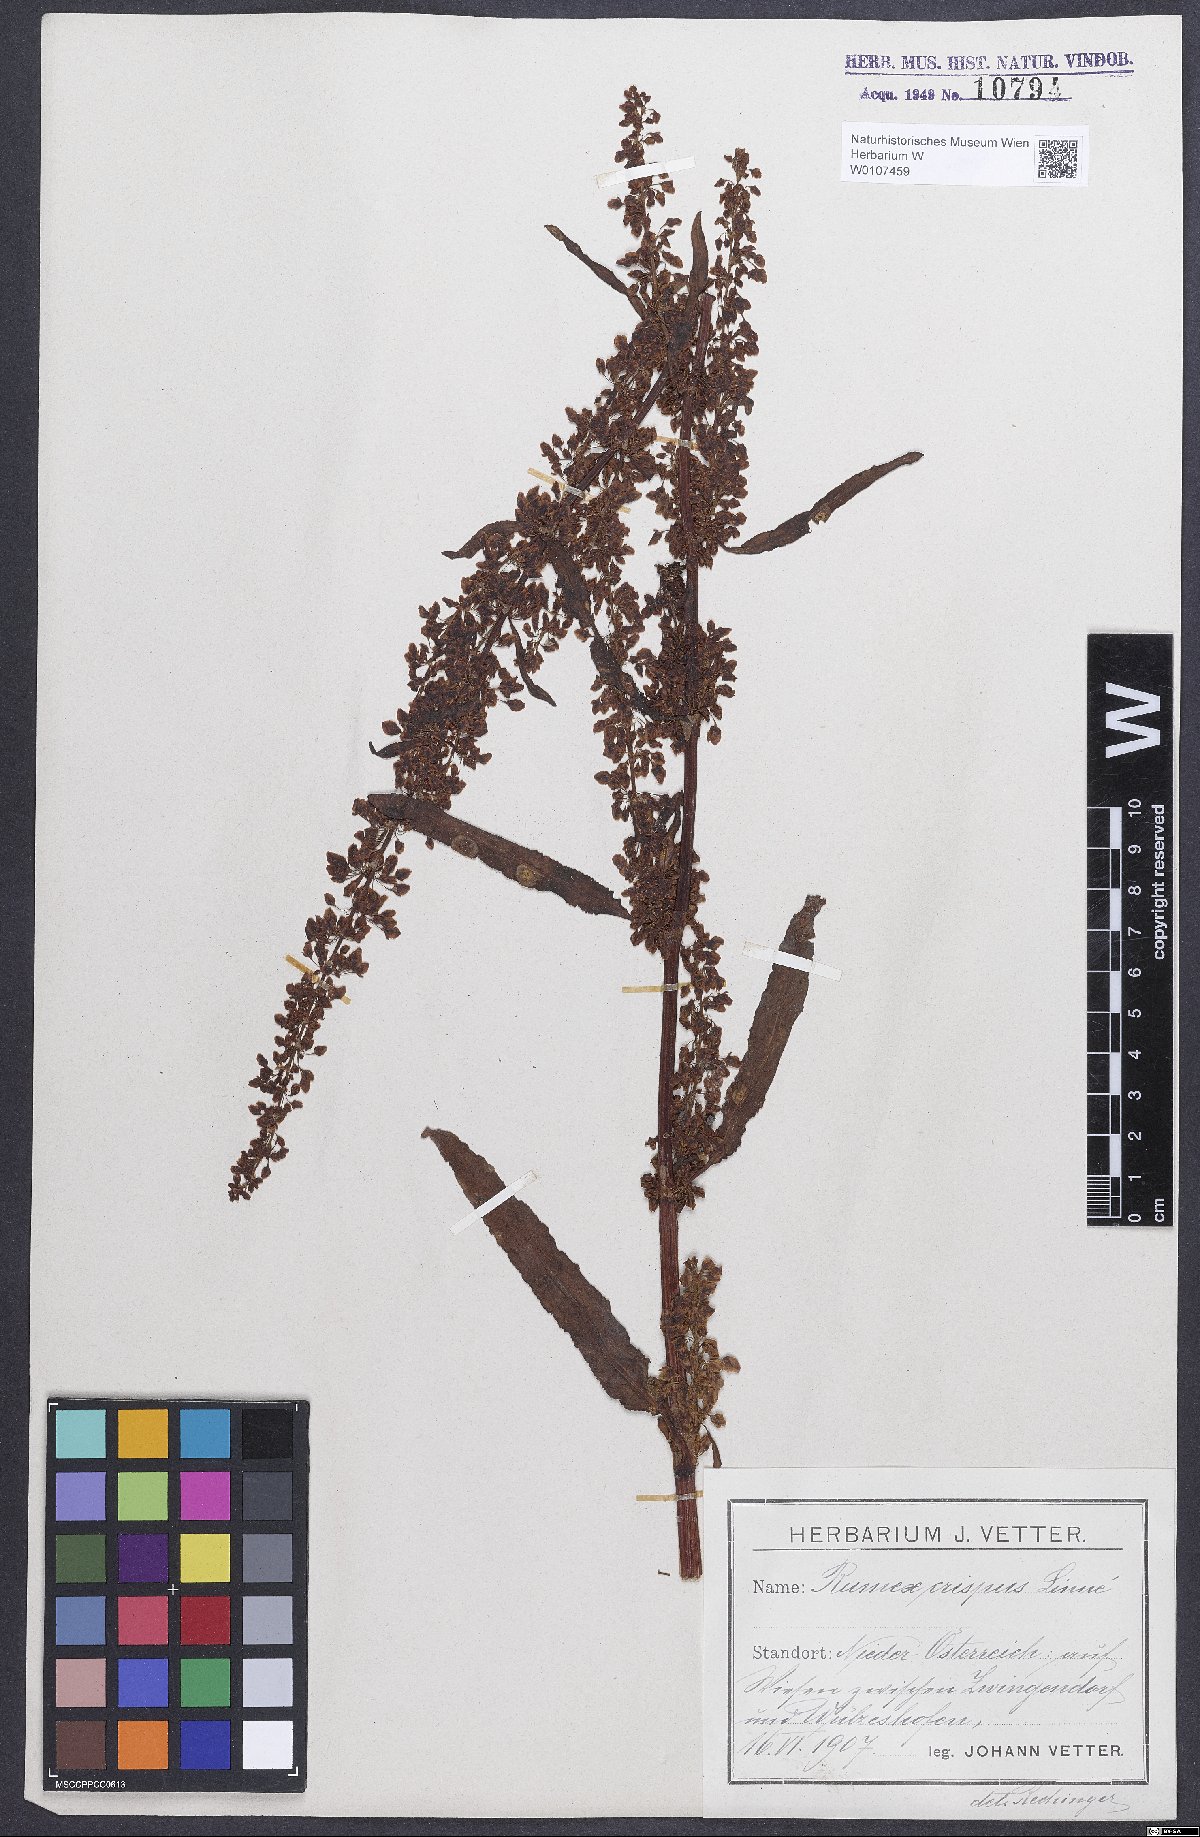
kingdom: Plantae
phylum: Tracheophyta
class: Magnoliopsida
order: Caryophyllales
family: Polygonaceae
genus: Rumex
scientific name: Rumex crispus
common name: Curled dock
